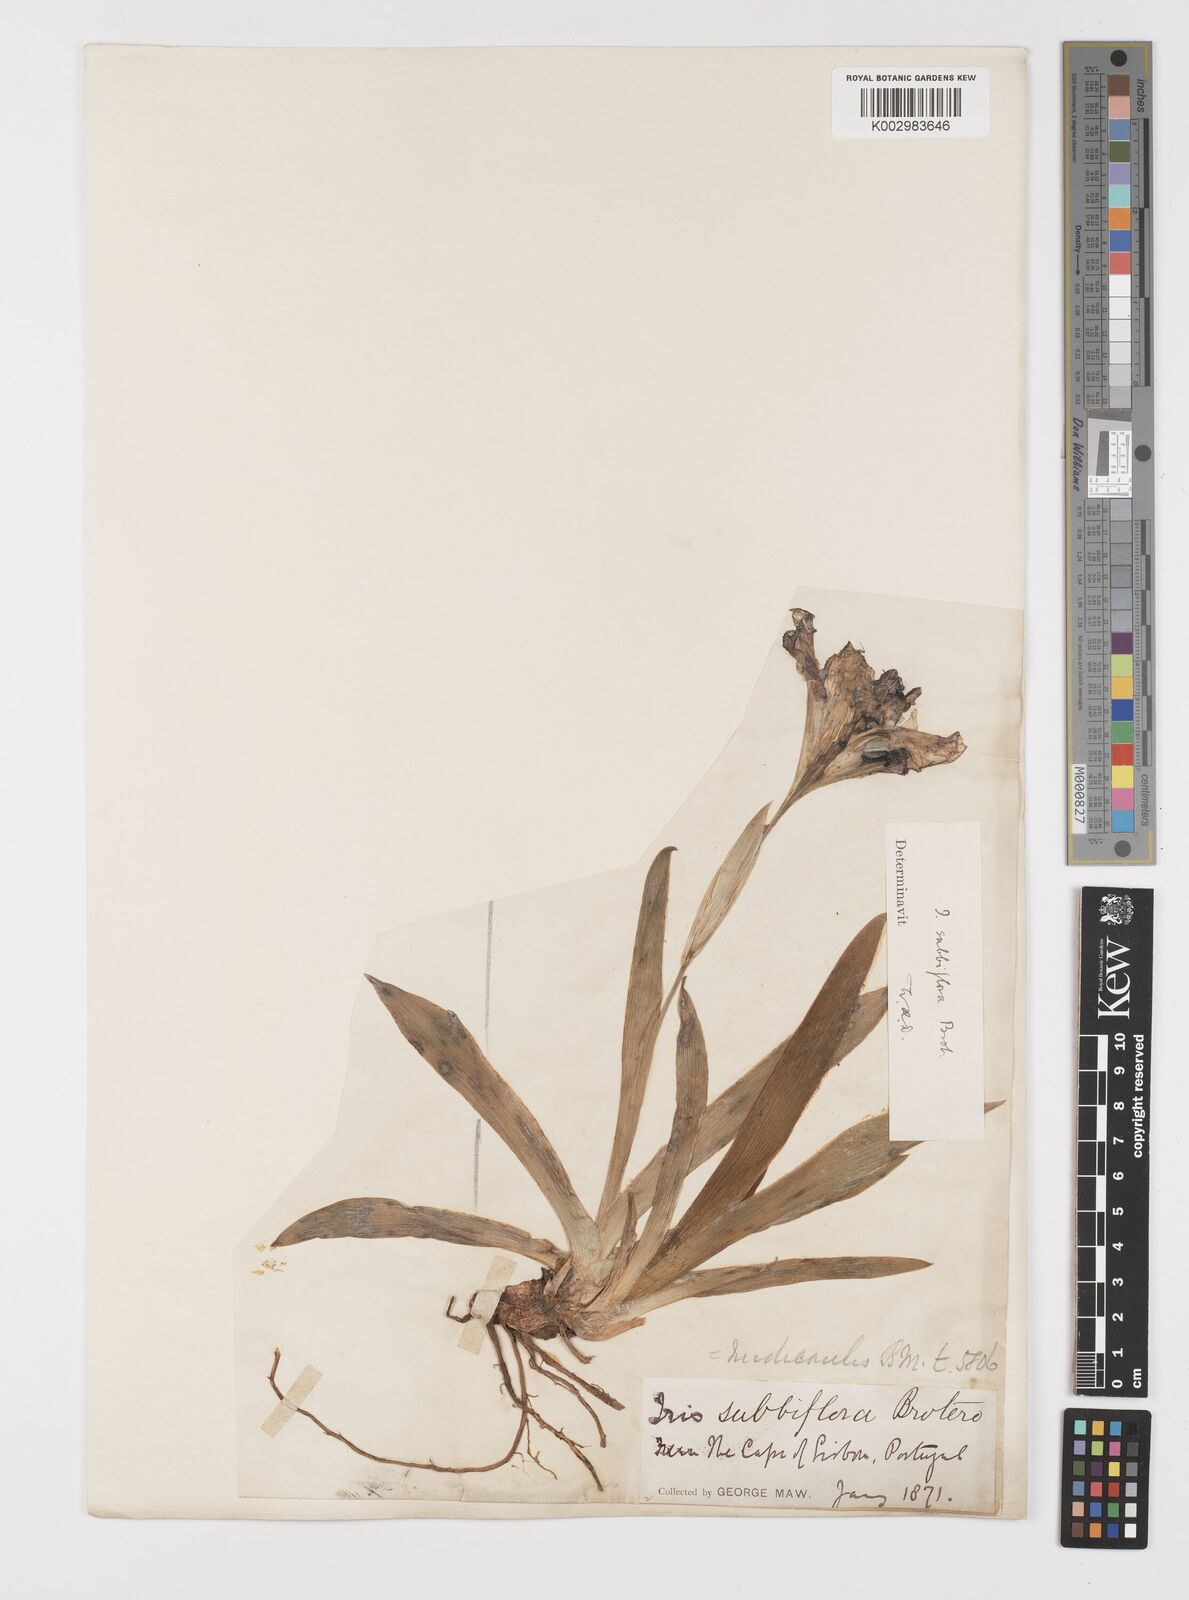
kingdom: Plantae
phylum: Tracheophyta
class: Liliopsida
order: Asparagales
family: Iridaceae
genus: Iris
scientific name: Iris lutescens
